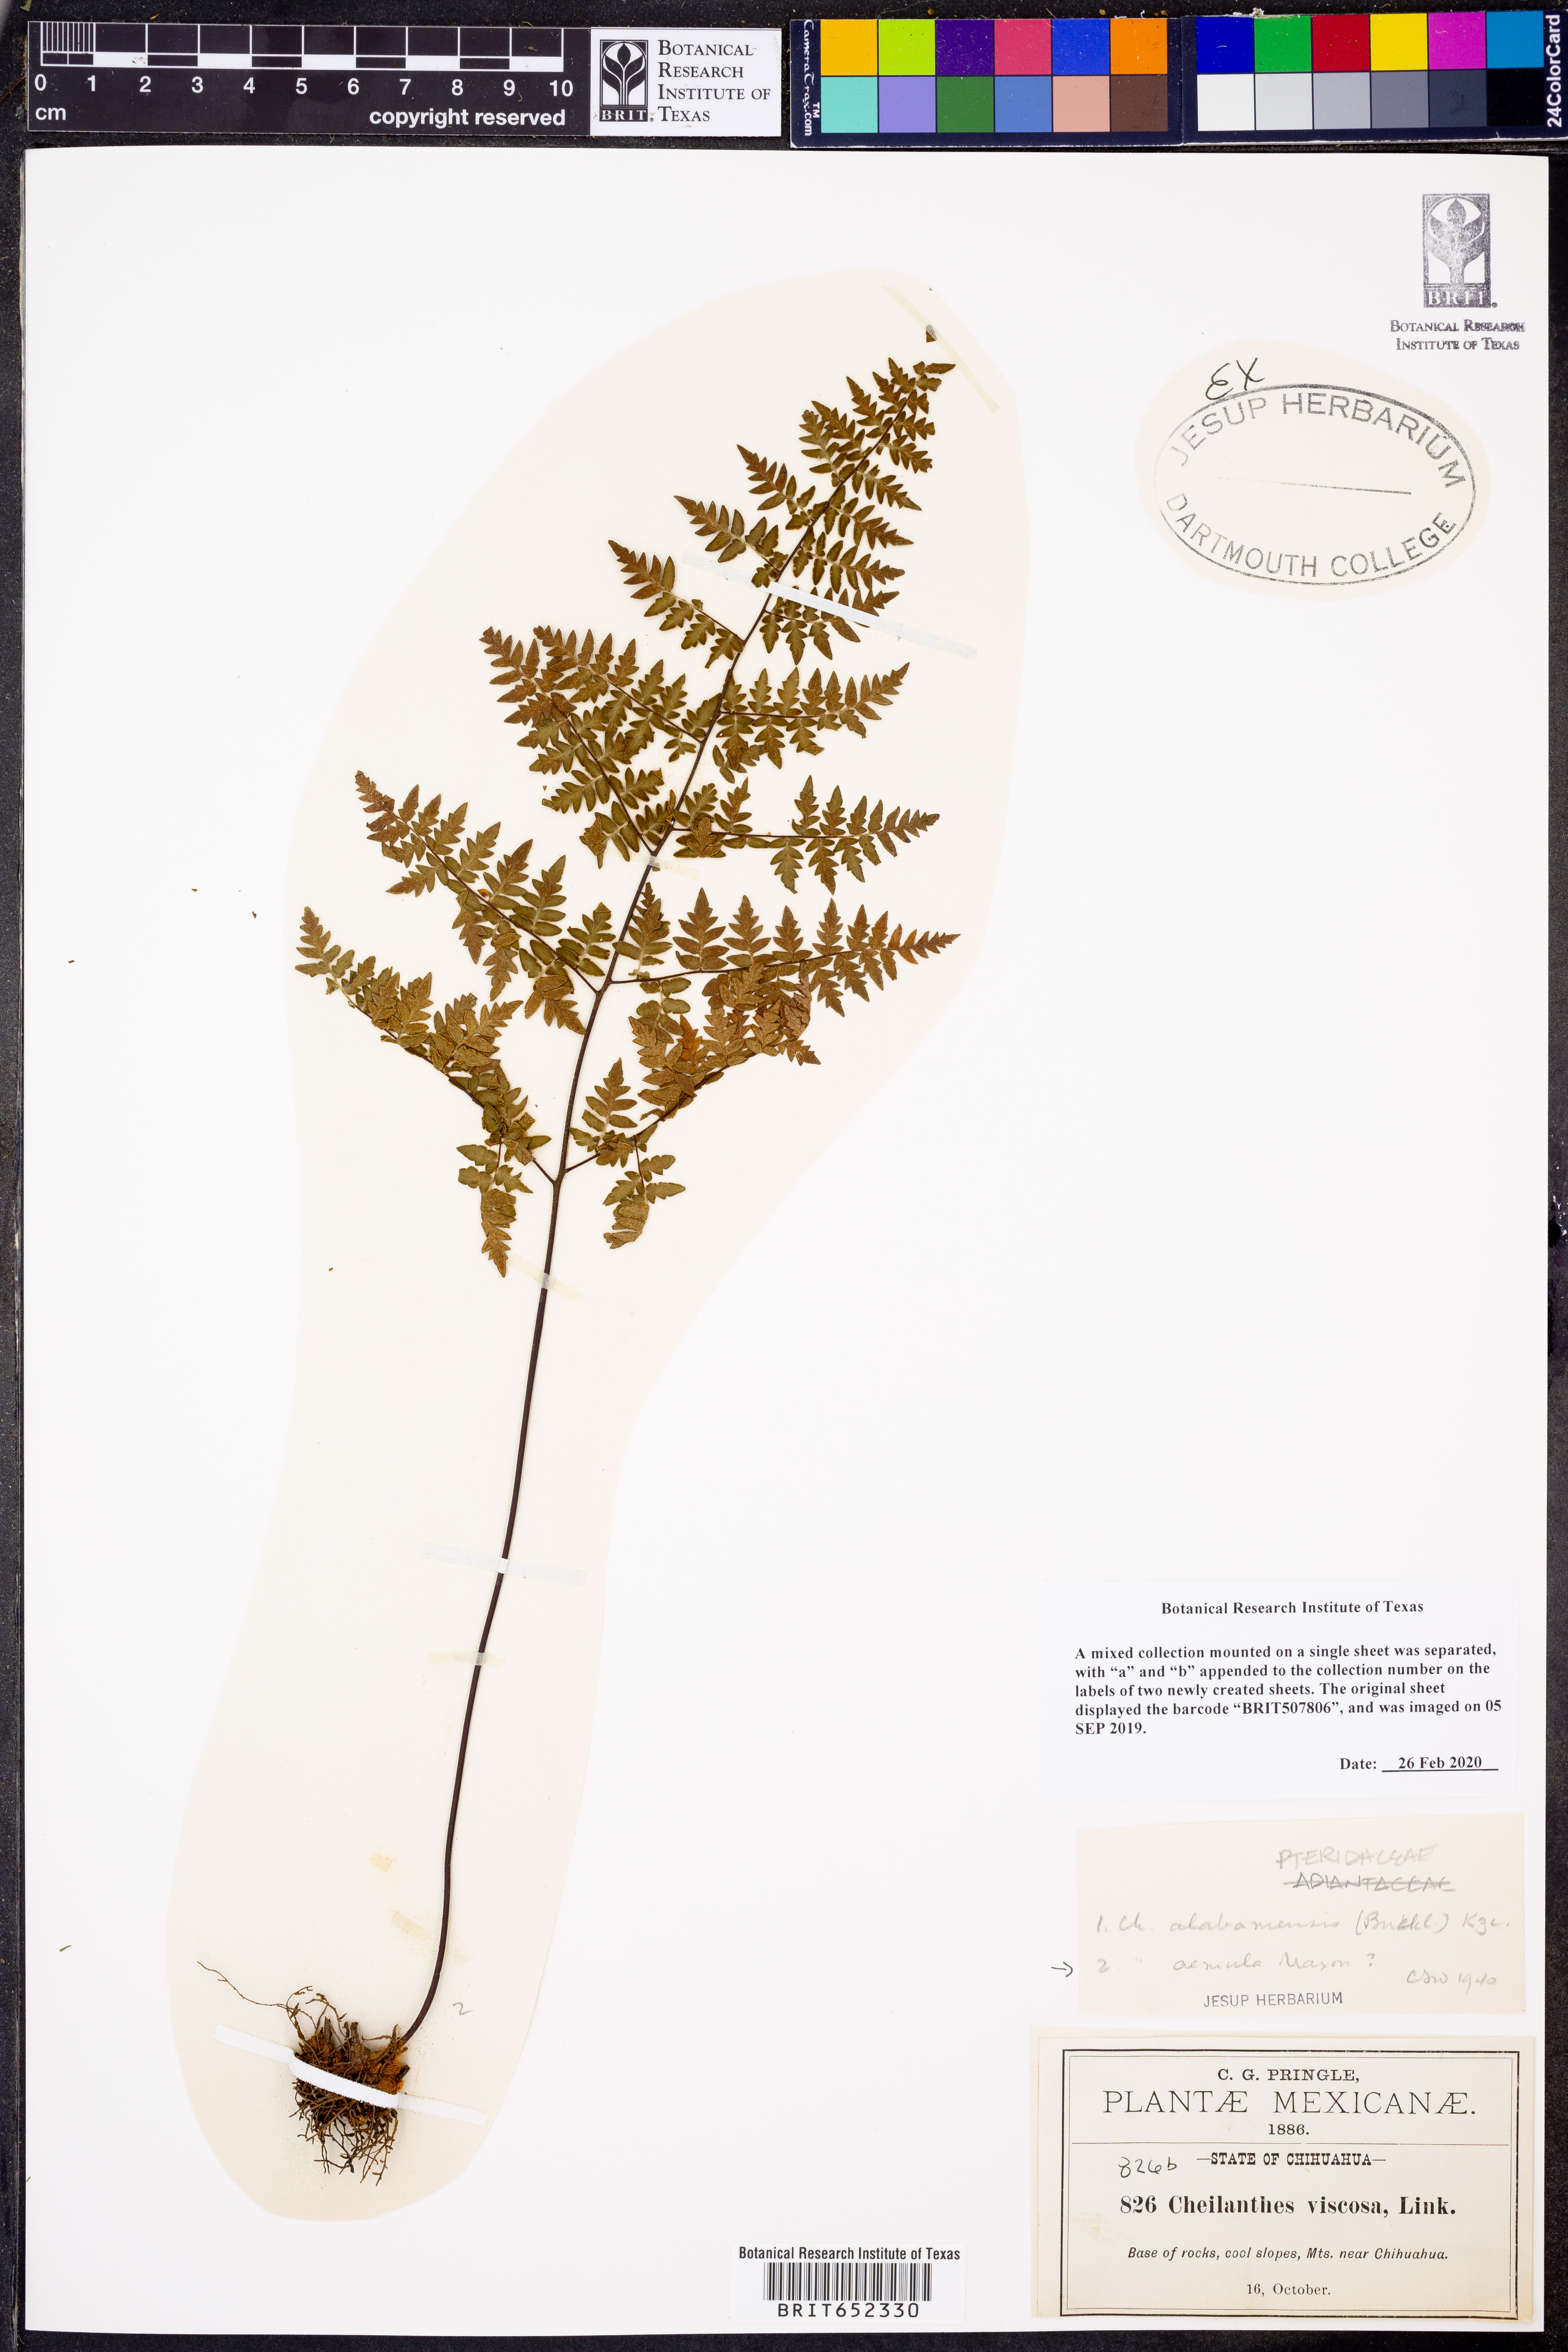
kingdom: Plantae
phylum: Tracheophyta
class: Polypodiopsida
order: Polypodiales
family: Pteridaceae
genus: Myriopteris
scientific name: Myriopteris aemula
